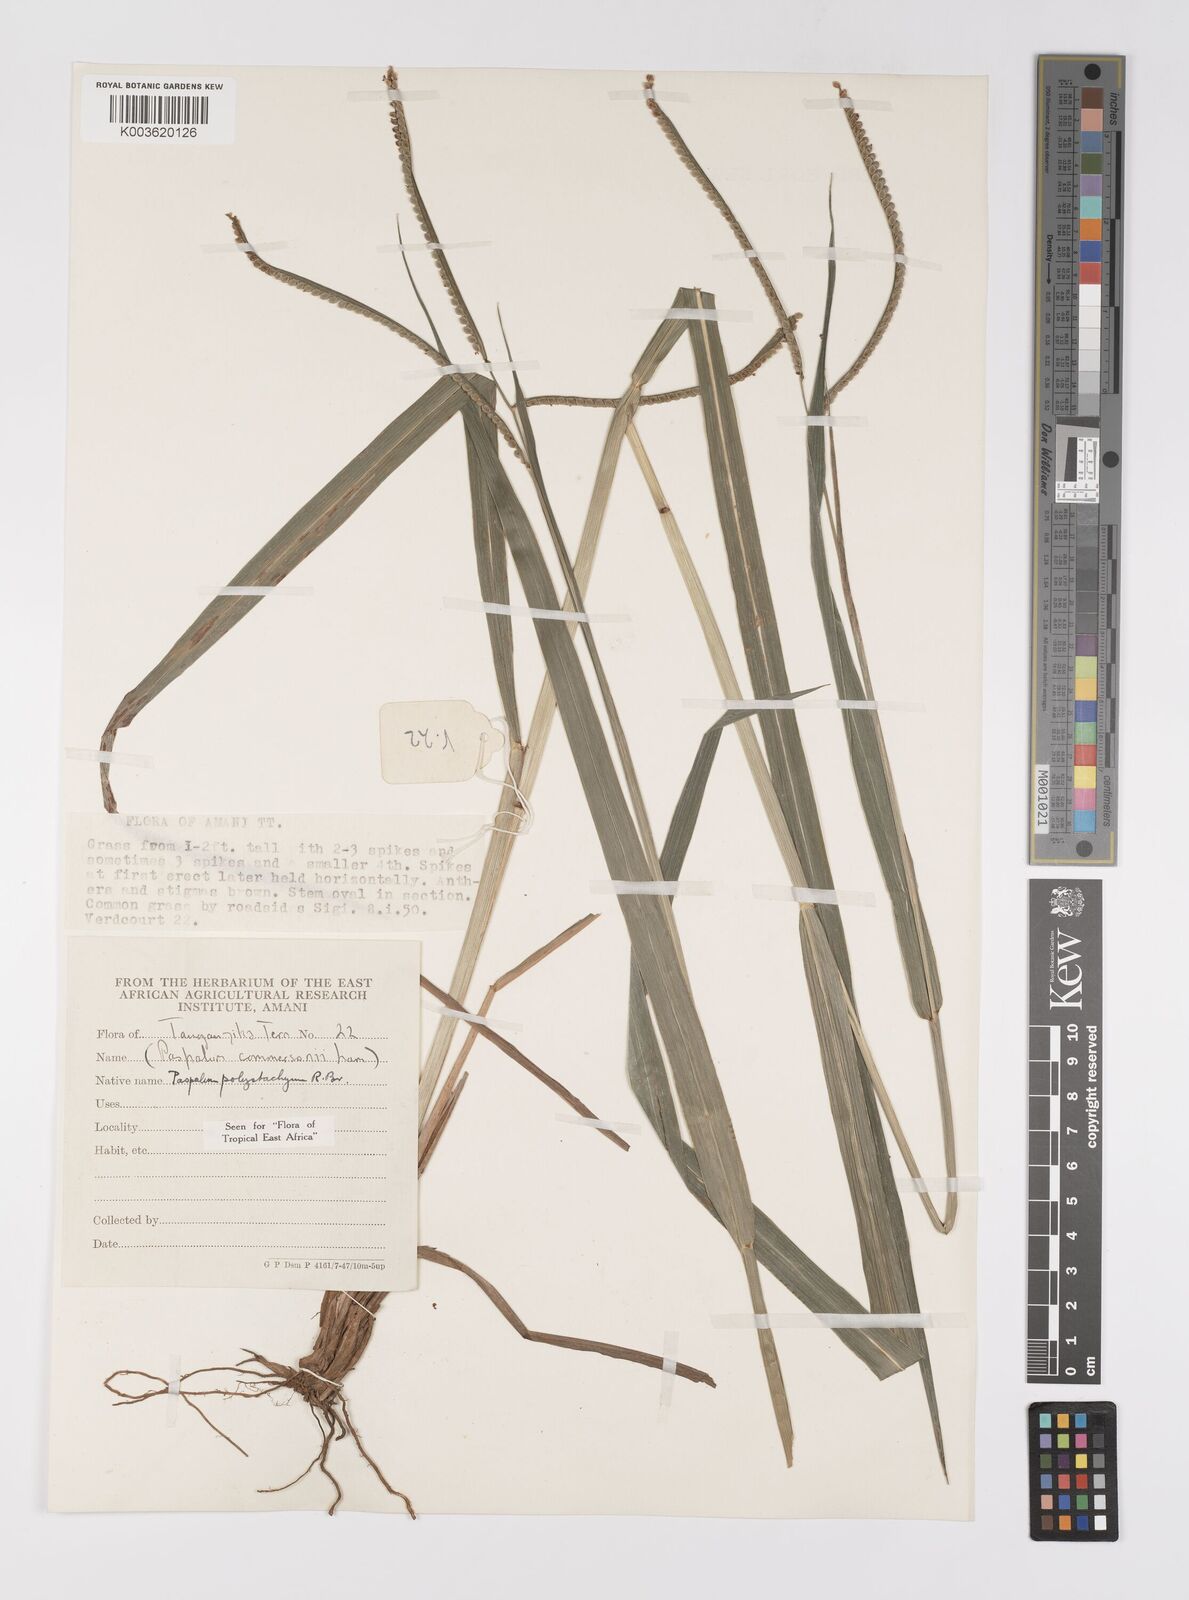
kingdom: Plantae
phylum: Tracheophyta
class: Liliopsida
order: Poales
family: Poaceae
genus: Paspalum
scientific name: Paspalum scrobiculatum
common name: Kodo millet
